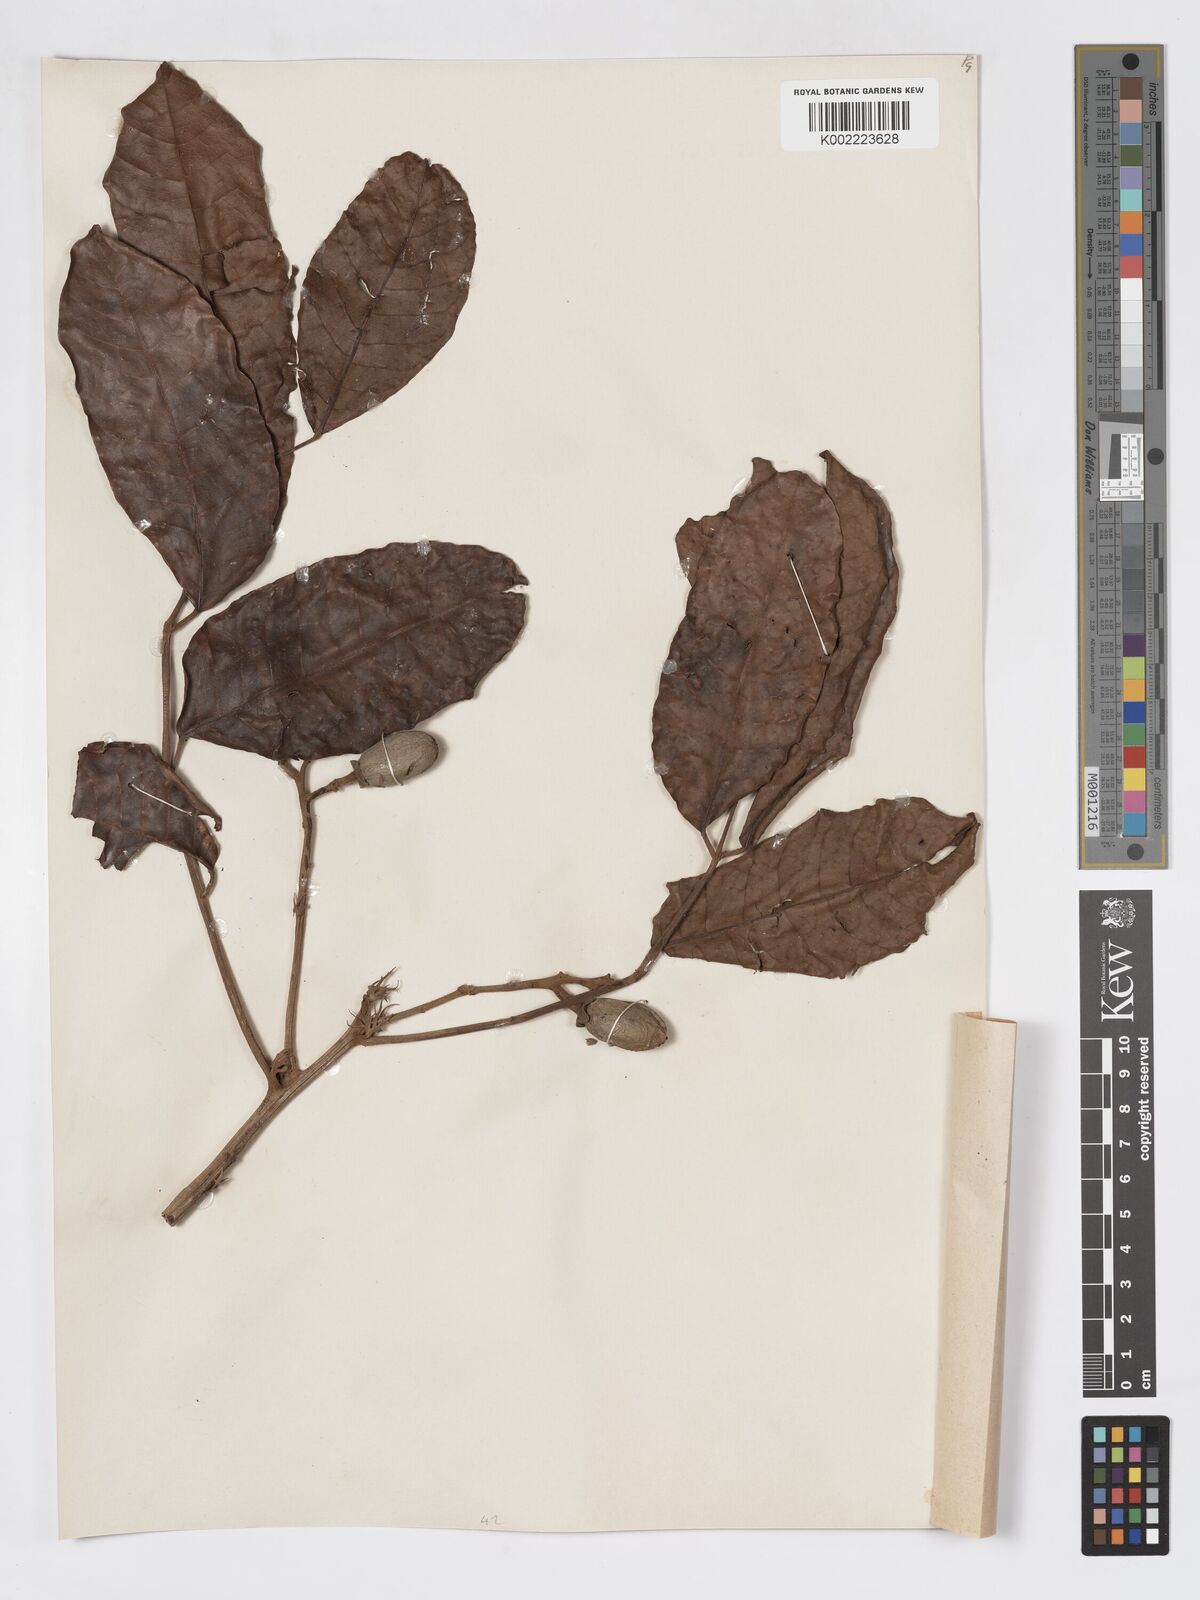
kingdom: Plantae
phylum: Tracheophyta
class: Magnoliopsida
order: Sapindales
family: Burseraceae
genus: Canarium
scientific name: Canarium denticulatum
